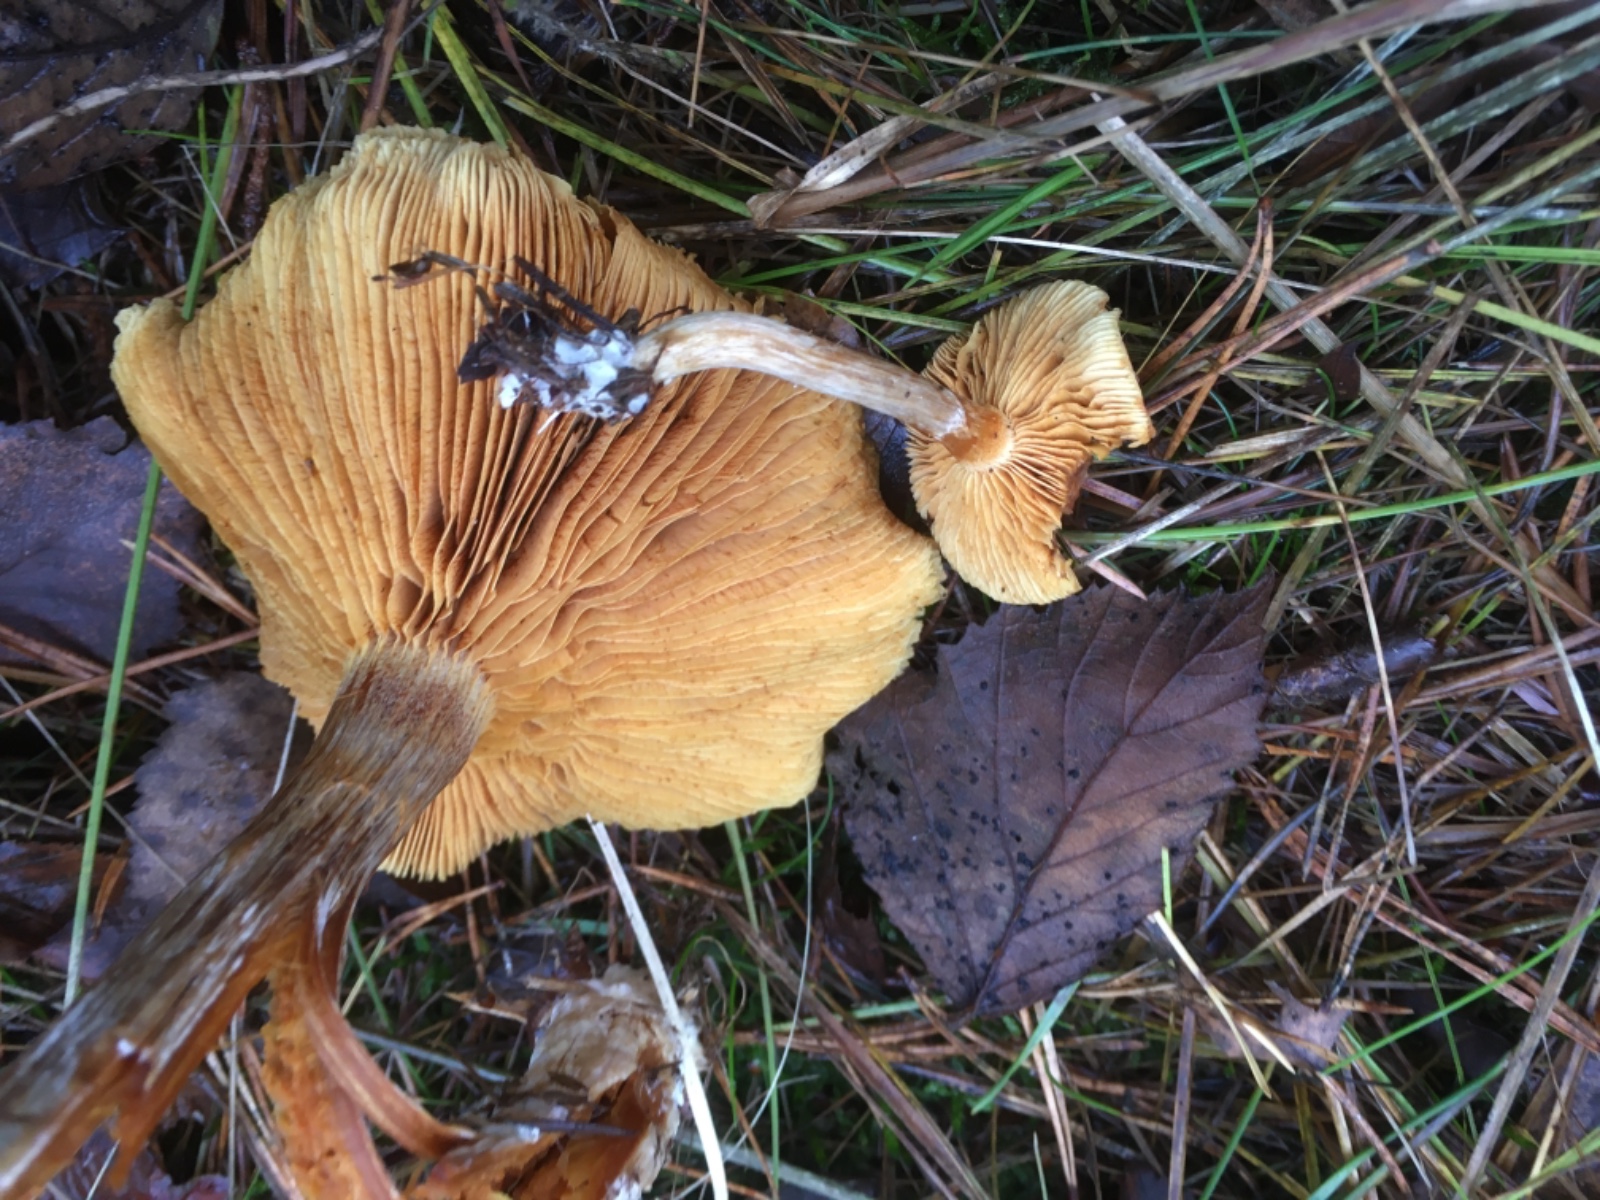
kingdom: Fungi
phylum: Basidiomycota
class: Agaricomycetes
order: Agaricales
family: Hymenogastraceae
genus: Gymnopilus
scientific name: Gymnopilus penetrans
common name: plettet flammehat
